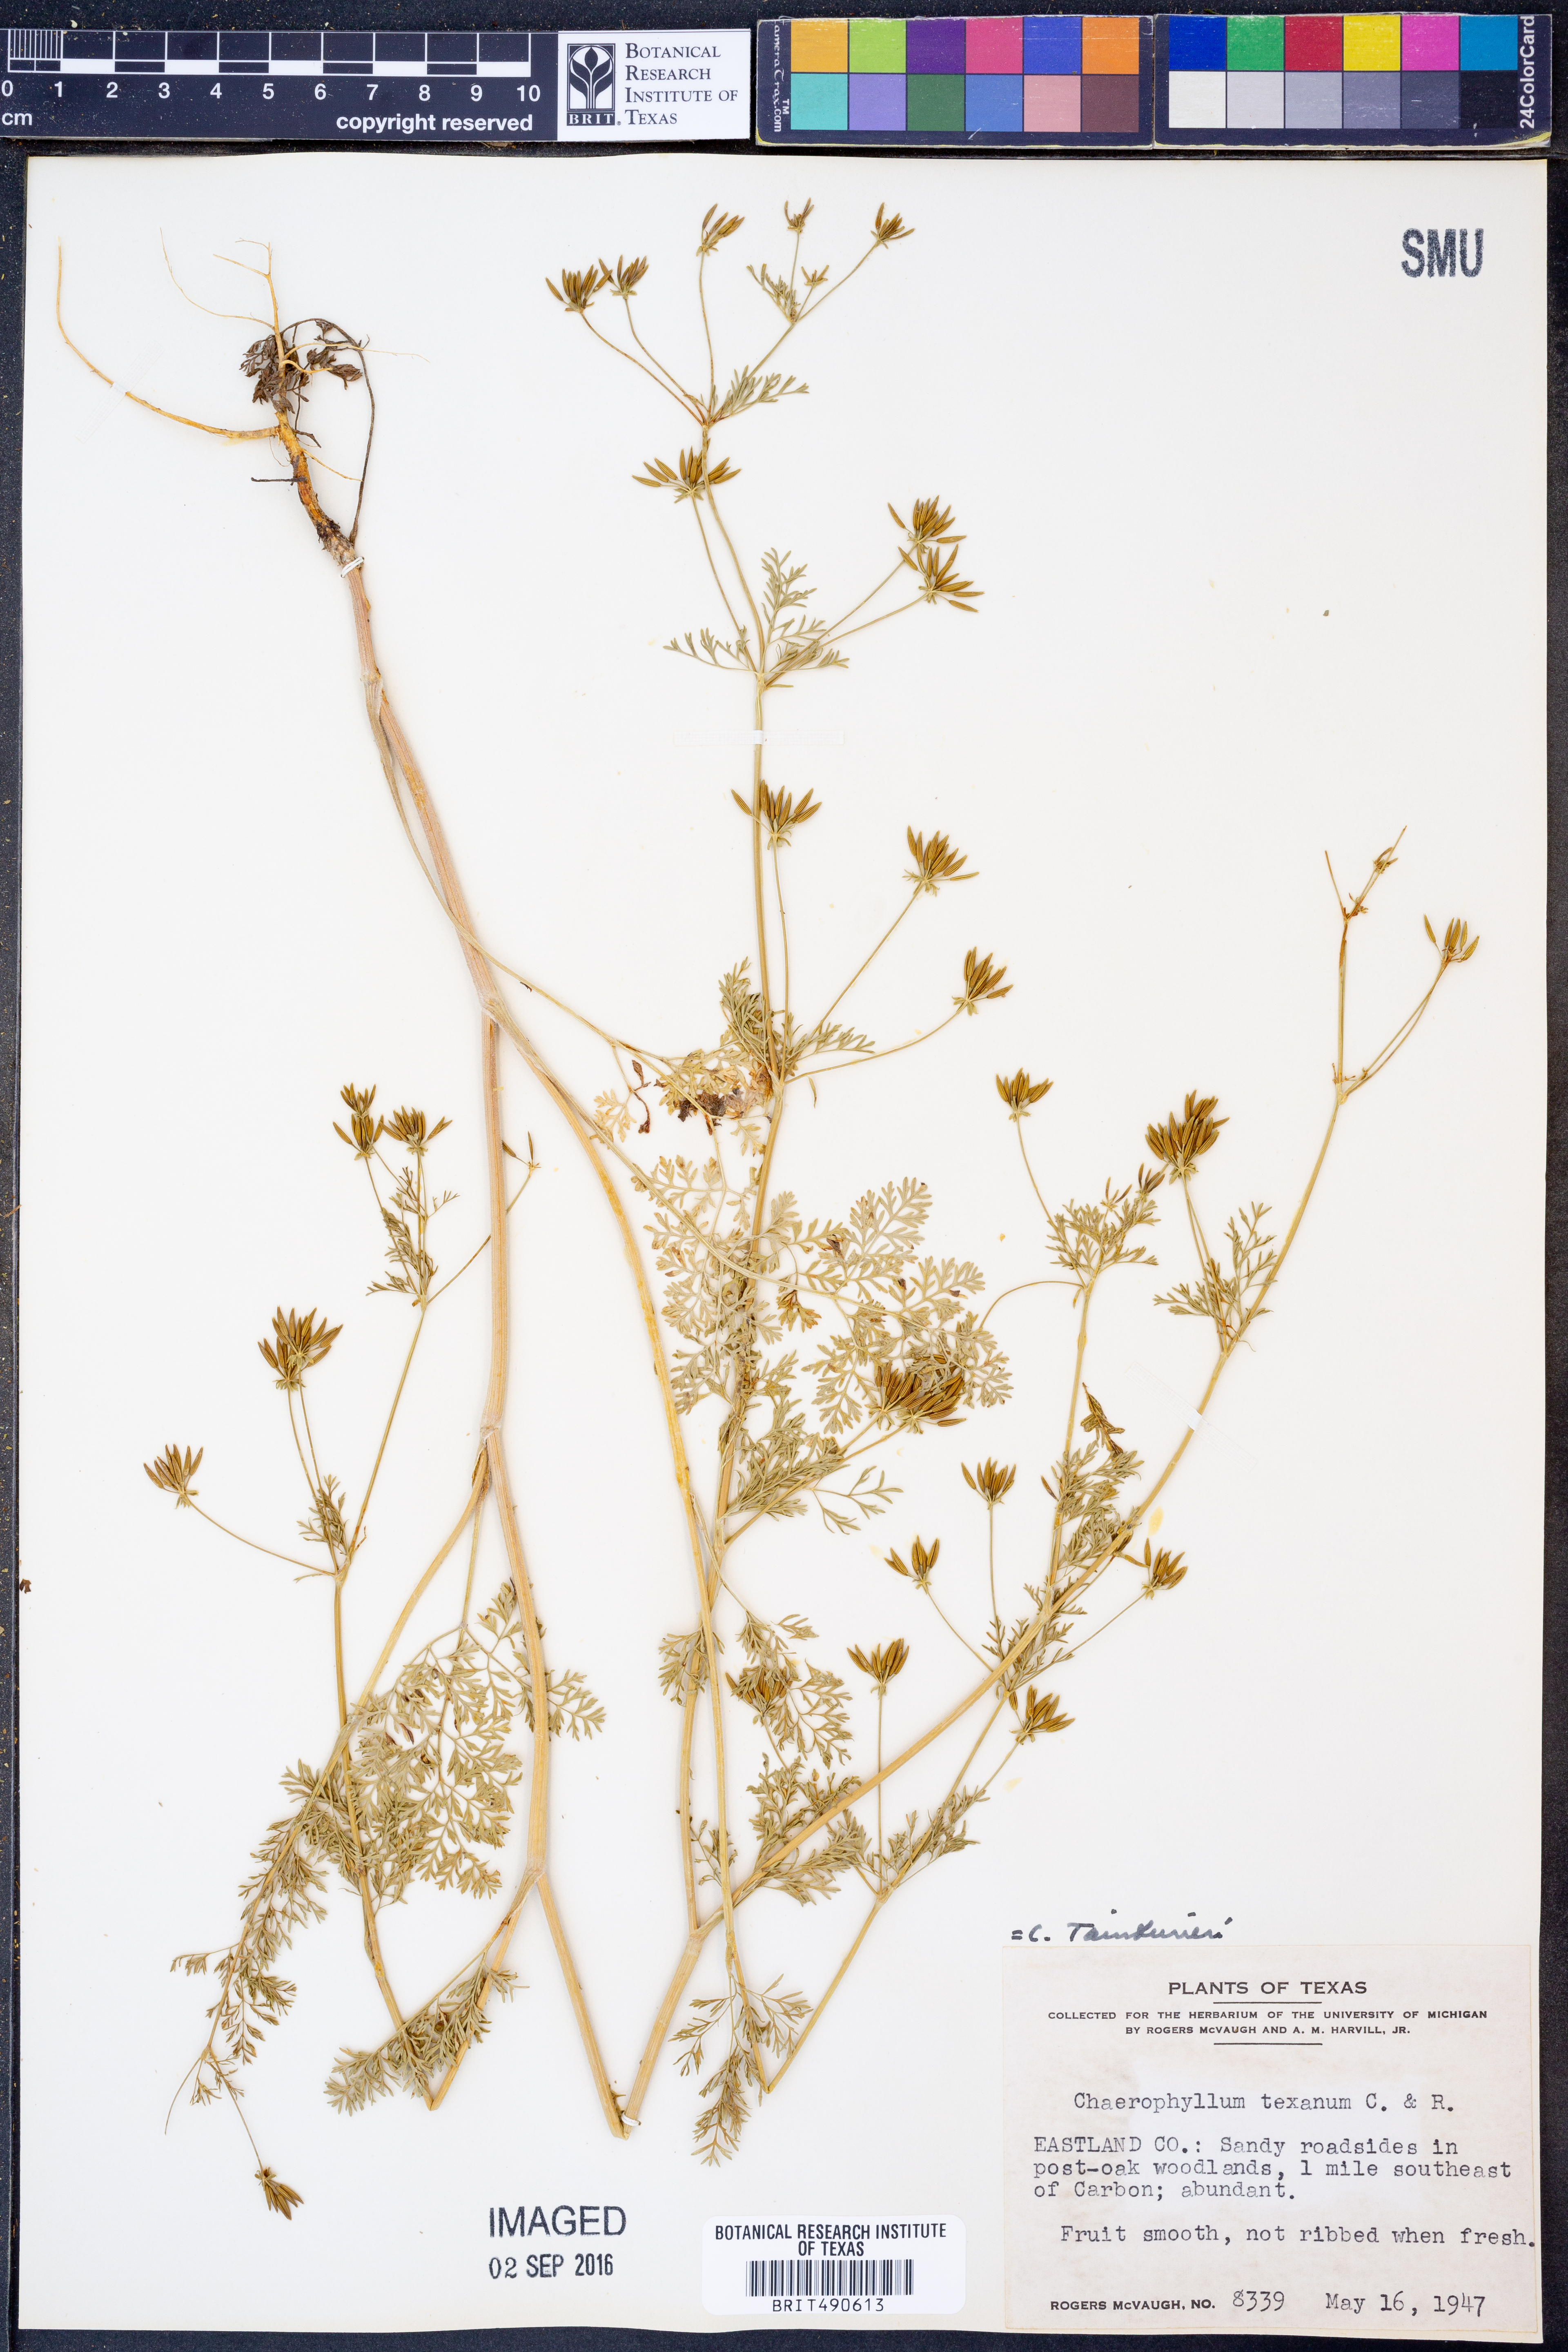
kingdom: Plantae
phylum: Tracheophyta
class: Magnoliopsida
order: Apiales
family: Apiaceae
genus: Chaerophyllum
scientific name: Chaerophyllum tainturieri
